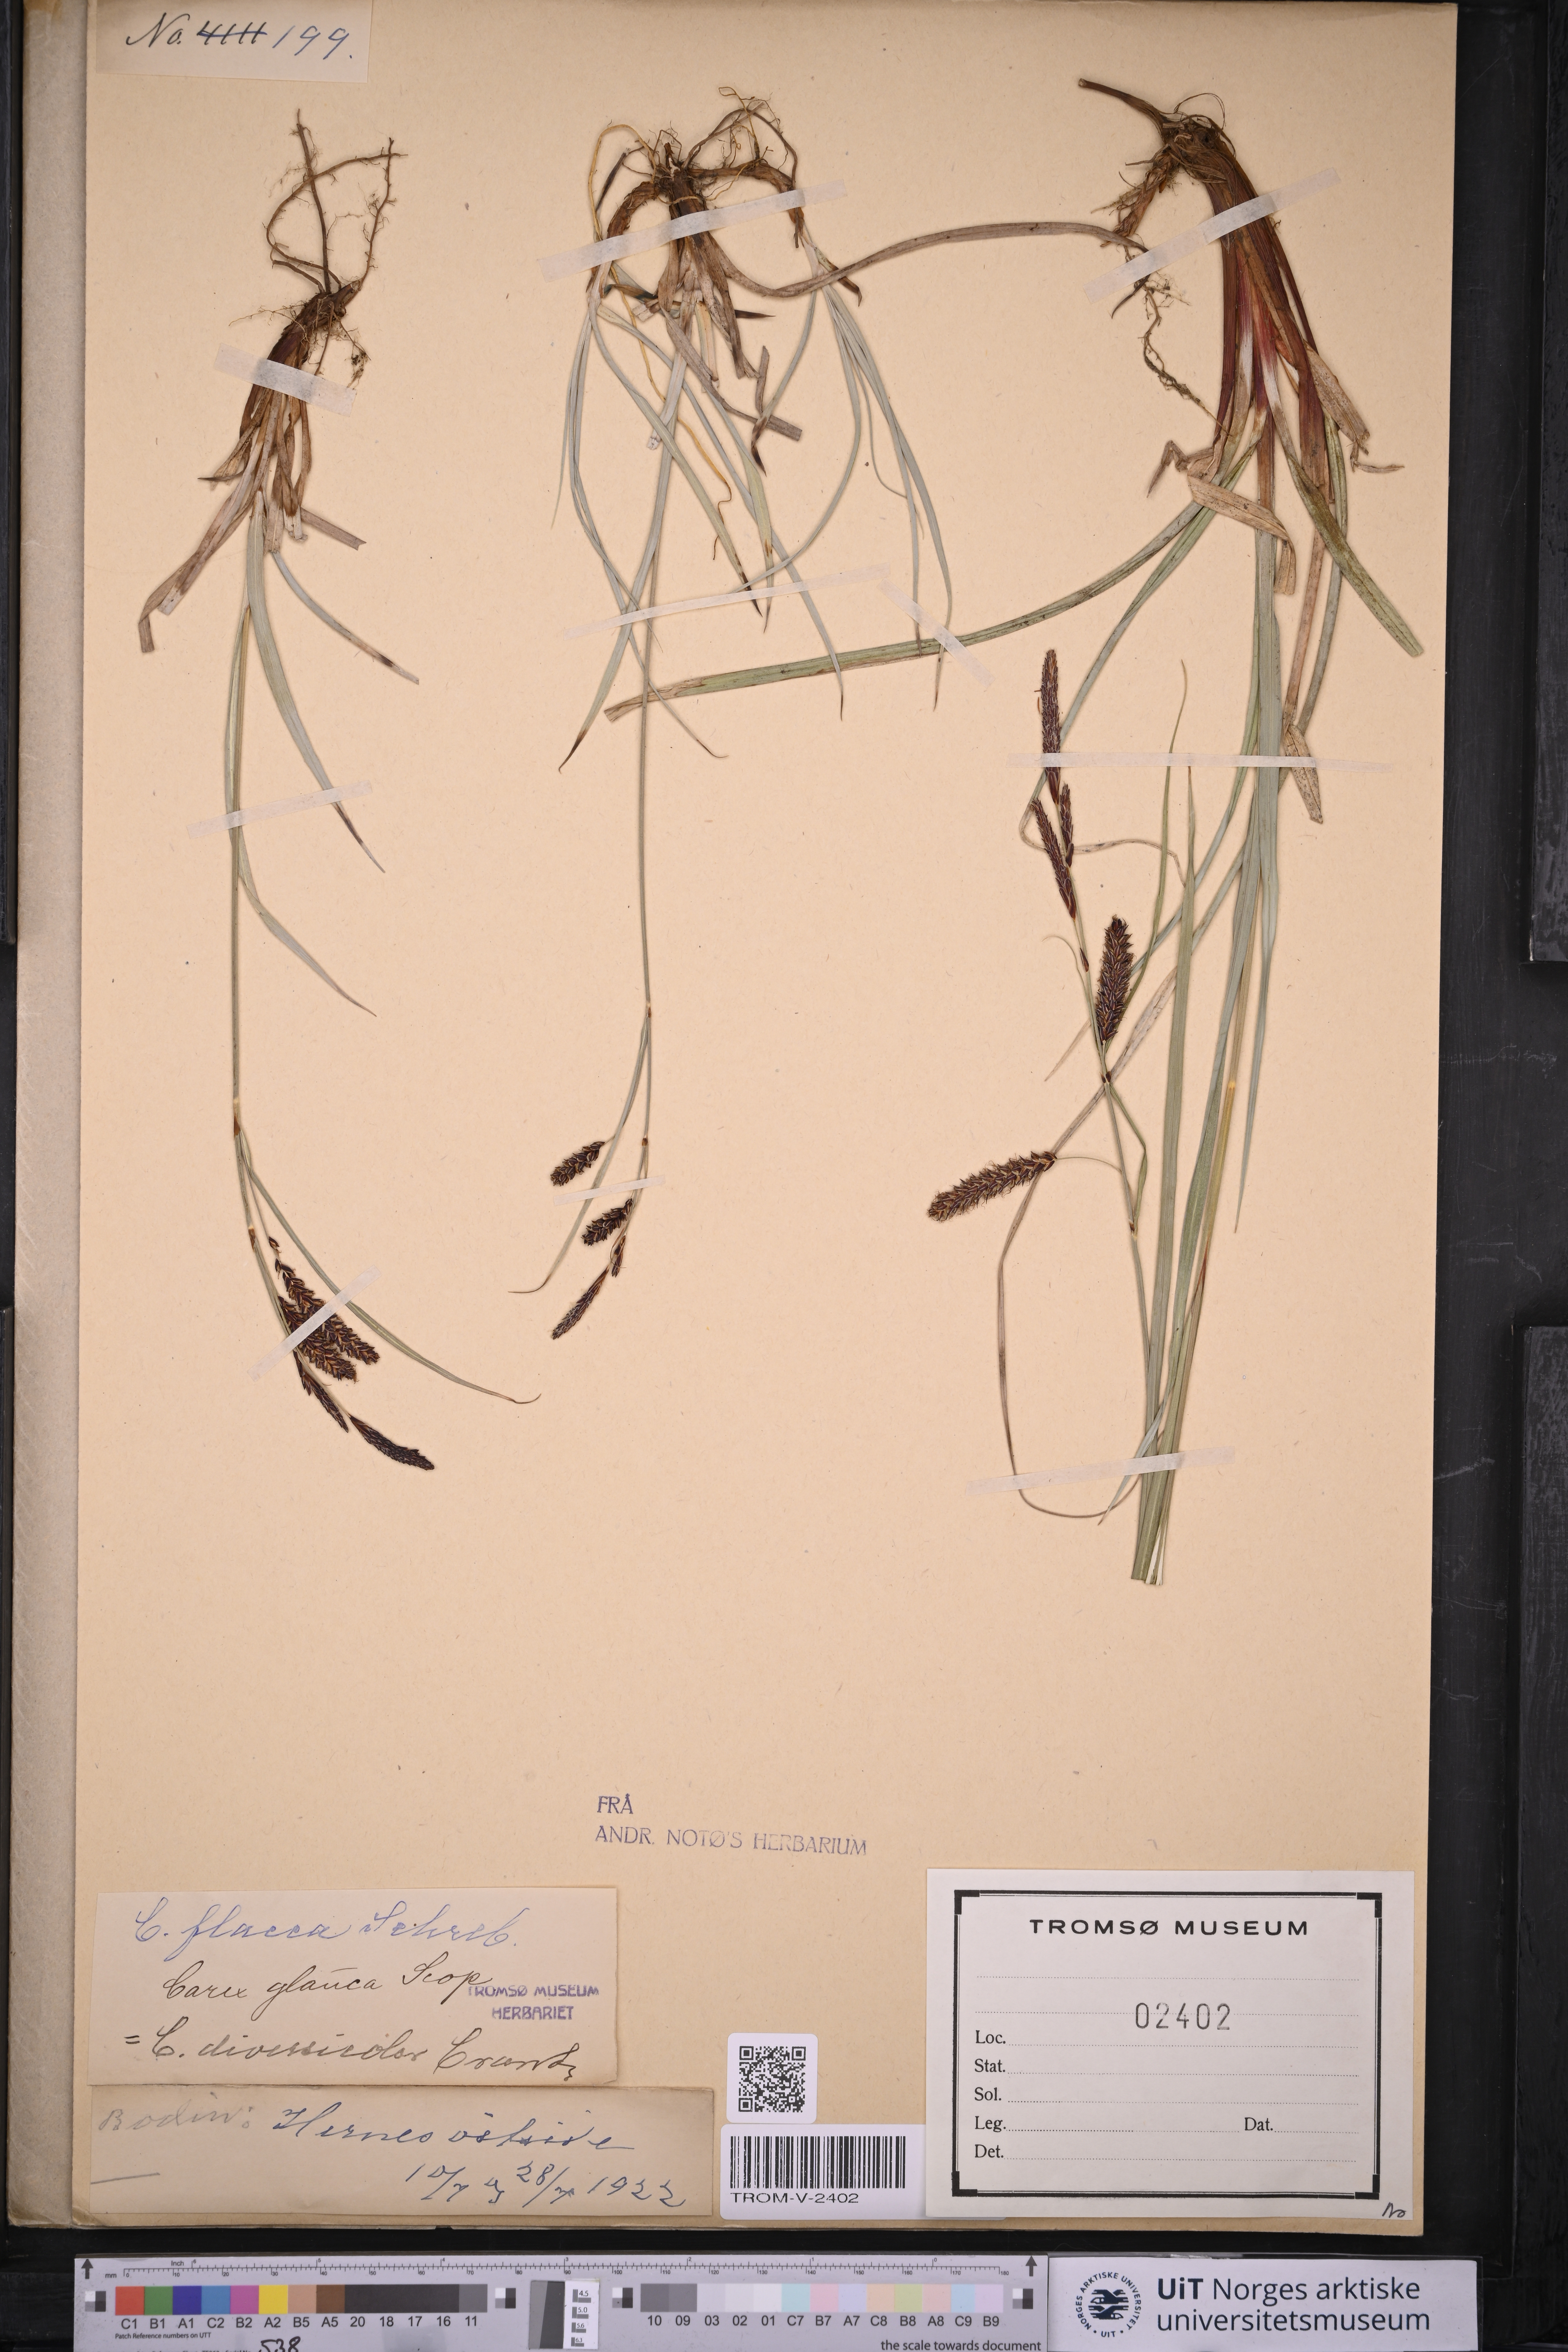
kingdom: Plantae
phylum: Tracheophyta
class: Liliopsida
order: Poales
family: Cyperaceae
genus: Carex
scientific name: Carex flacca
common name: Glaucous sedge
